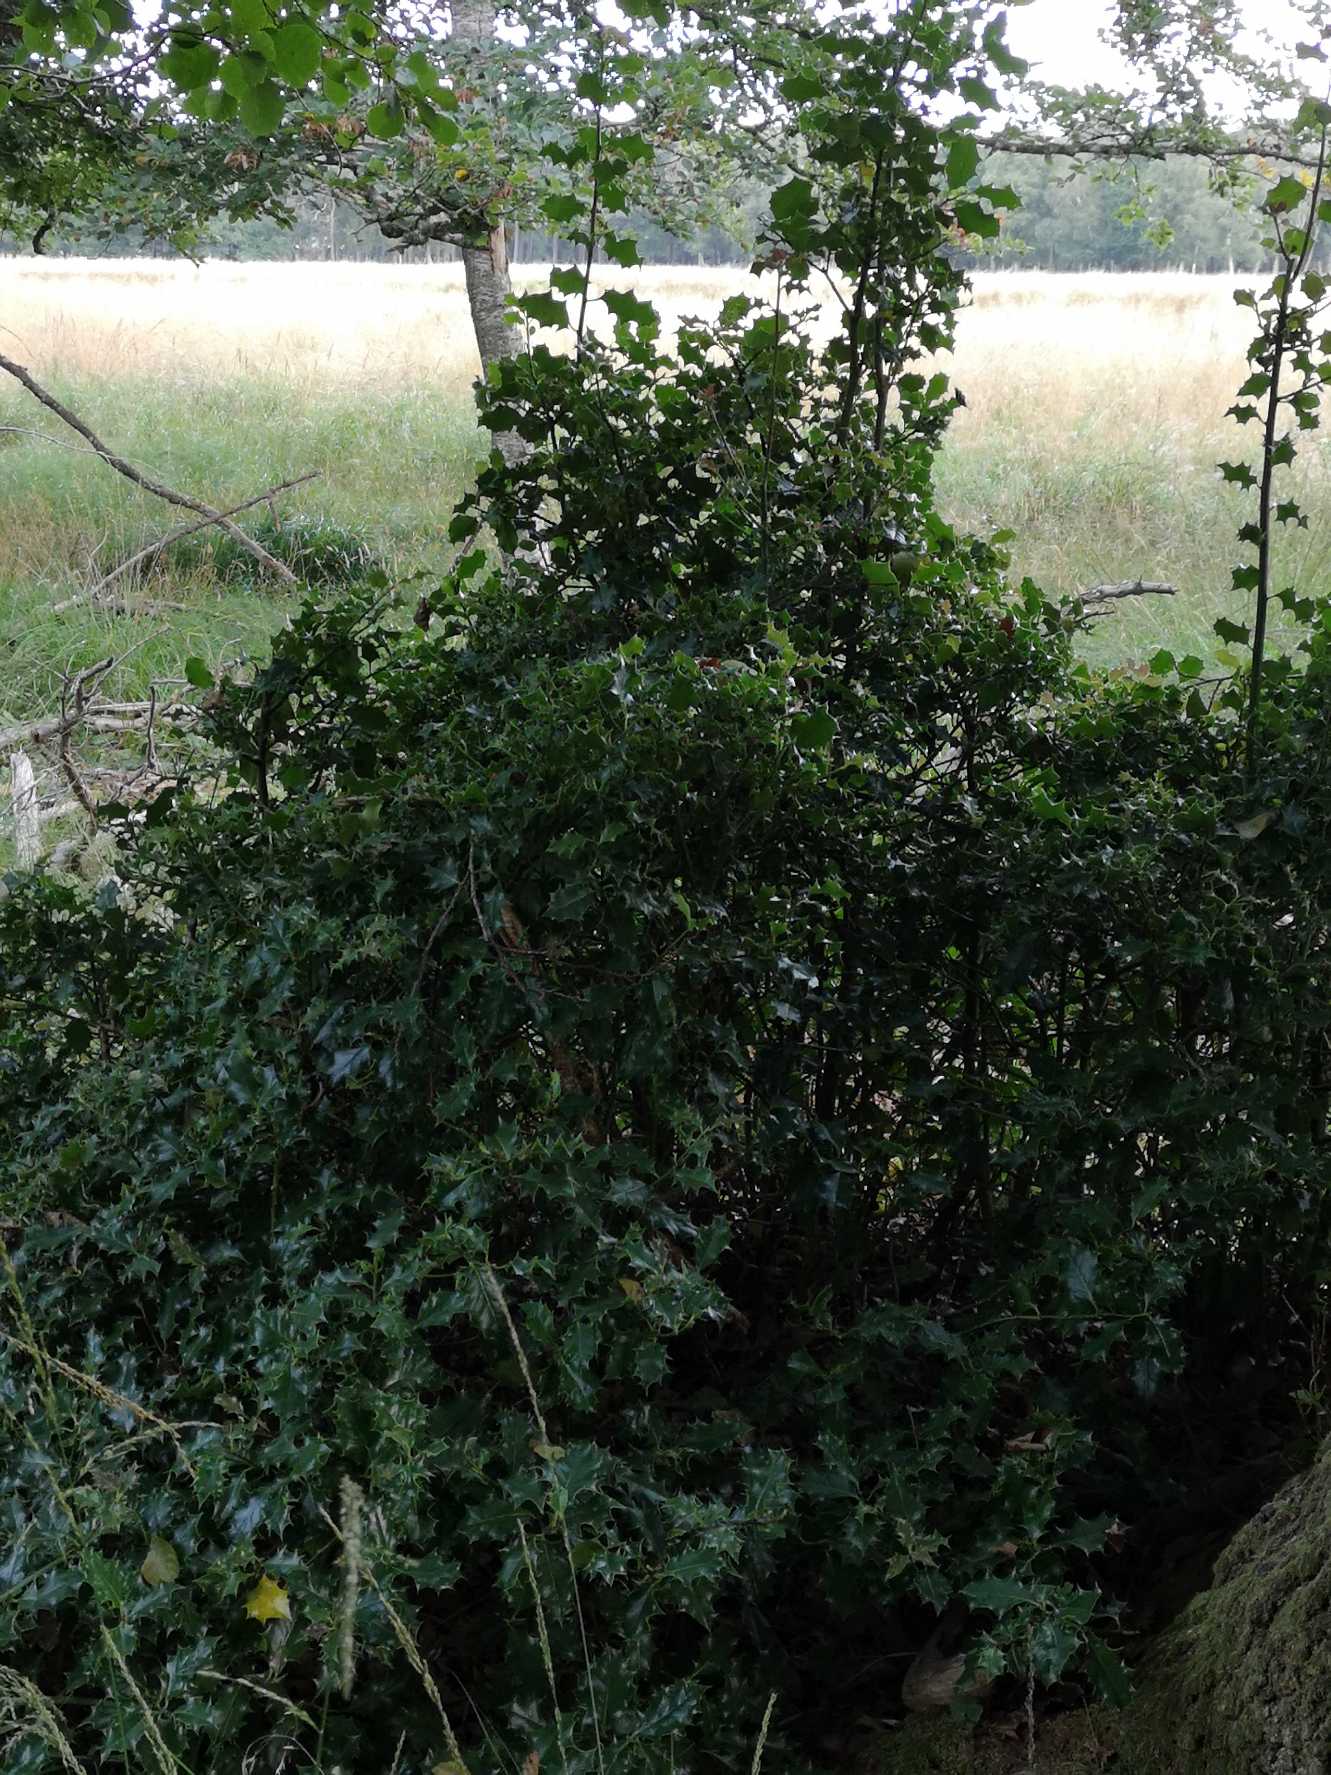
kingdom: Plantae
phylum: Tracheophyta
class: Magnoliopsida
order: Aquifoliales
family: Aquifoliaceae
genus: Ilex
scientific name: Ilex aquifolium
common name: Kristtorn
